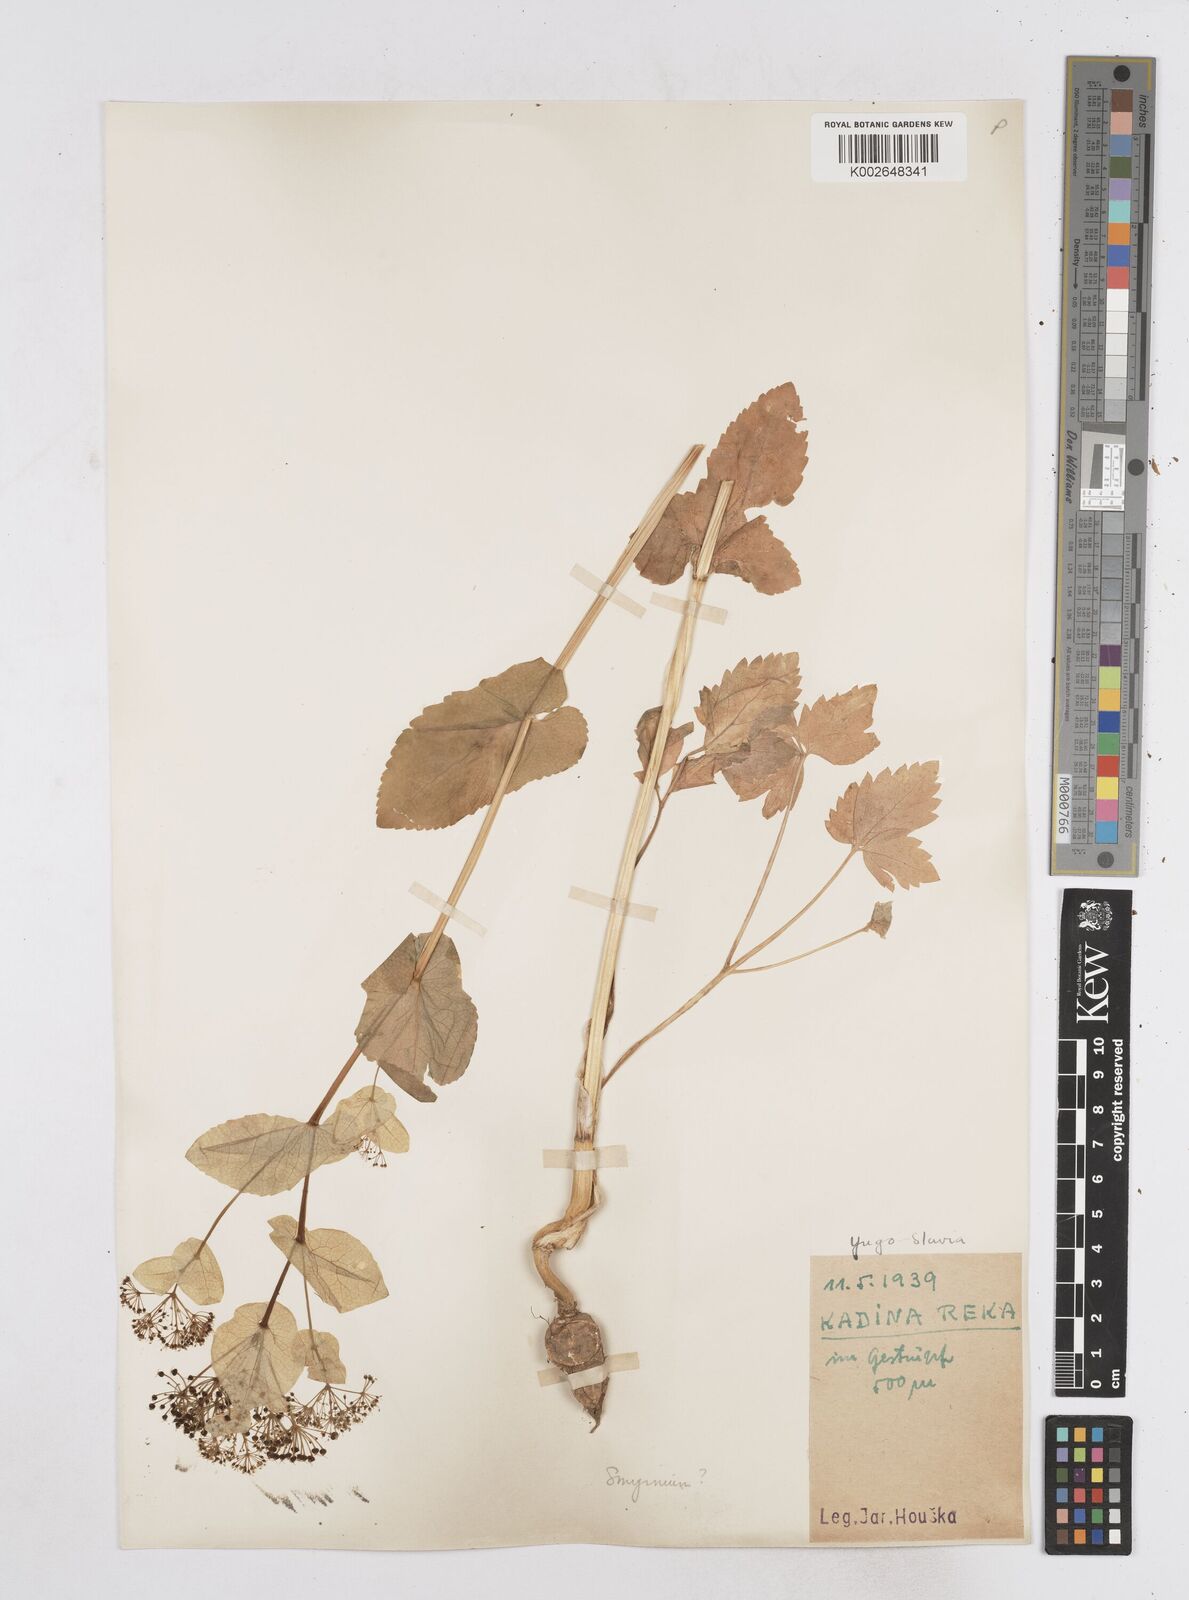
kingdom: Plantae
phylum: Tracheophyta
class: Magnoliopsida
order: Apiales
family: Apiaceae
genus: Smyrnium
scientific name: Smyrnium perfoliatum
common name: Perfoliate alexanders
